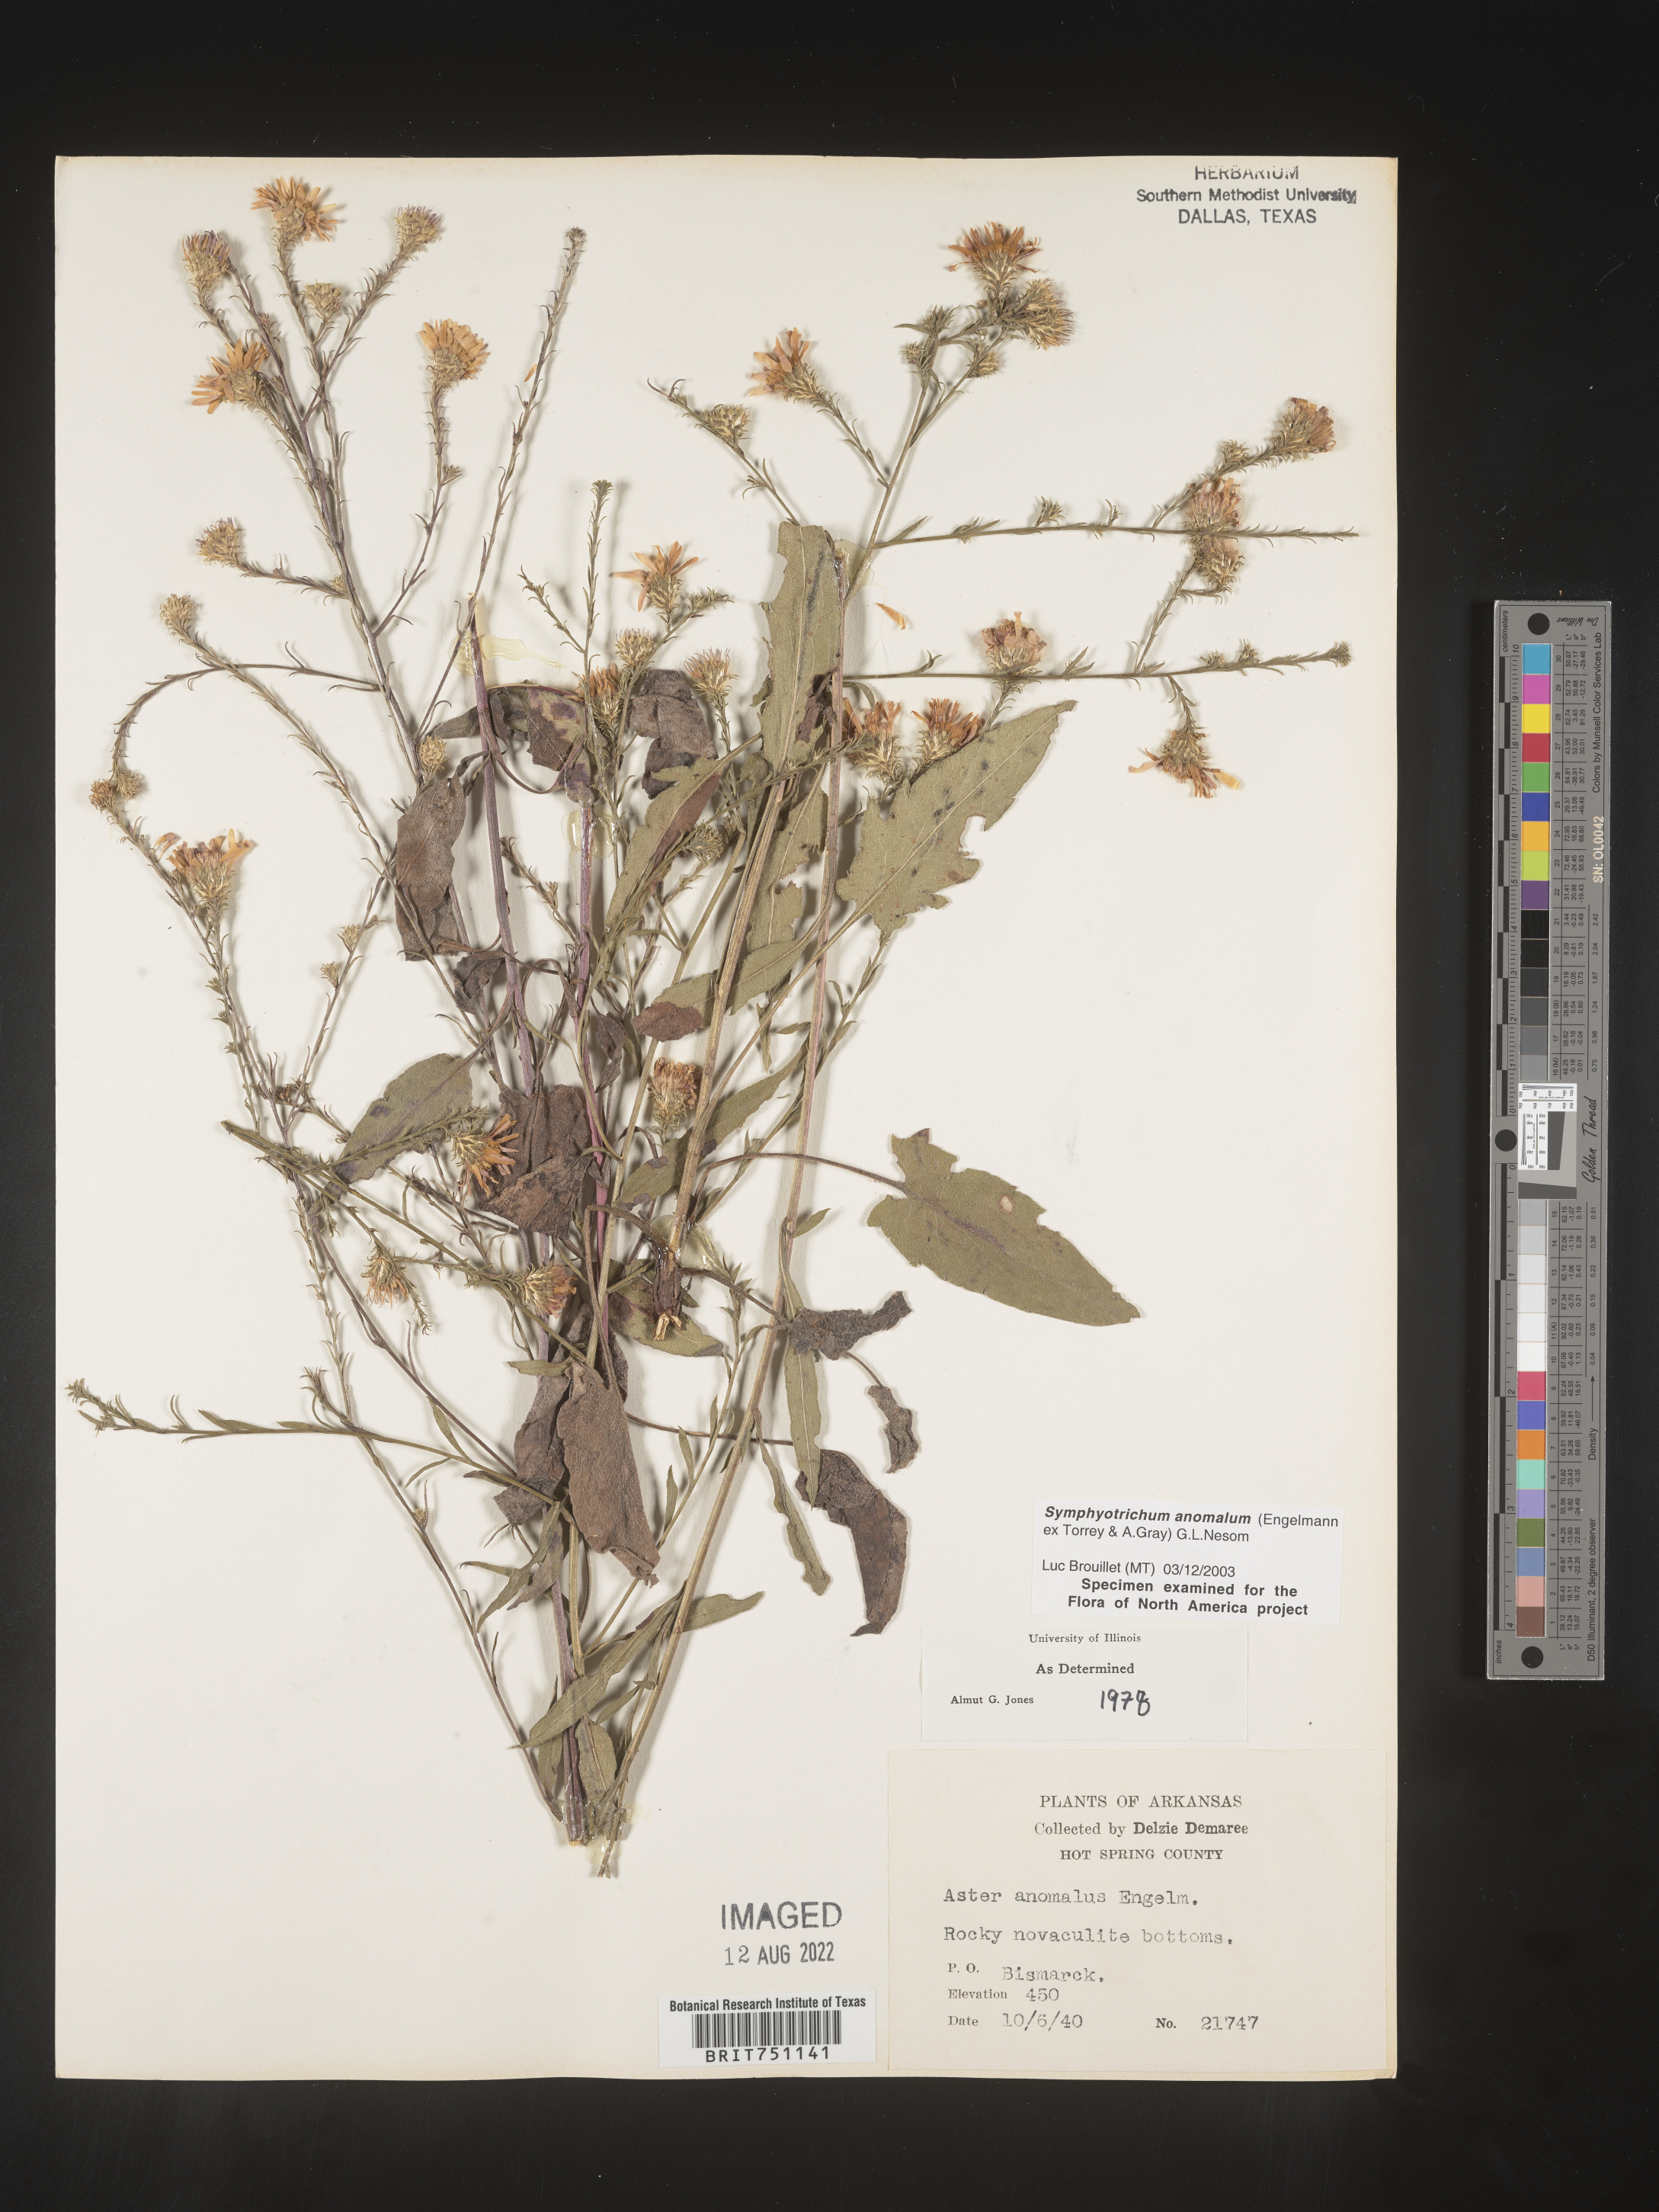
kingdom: Plantae
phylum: Tracheophyta
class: Magnoliopsida
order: Asterales
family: Asteraceae
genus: Symphyotrichum
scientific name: Symphyotrichum anomalum
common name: Many-ray aster
